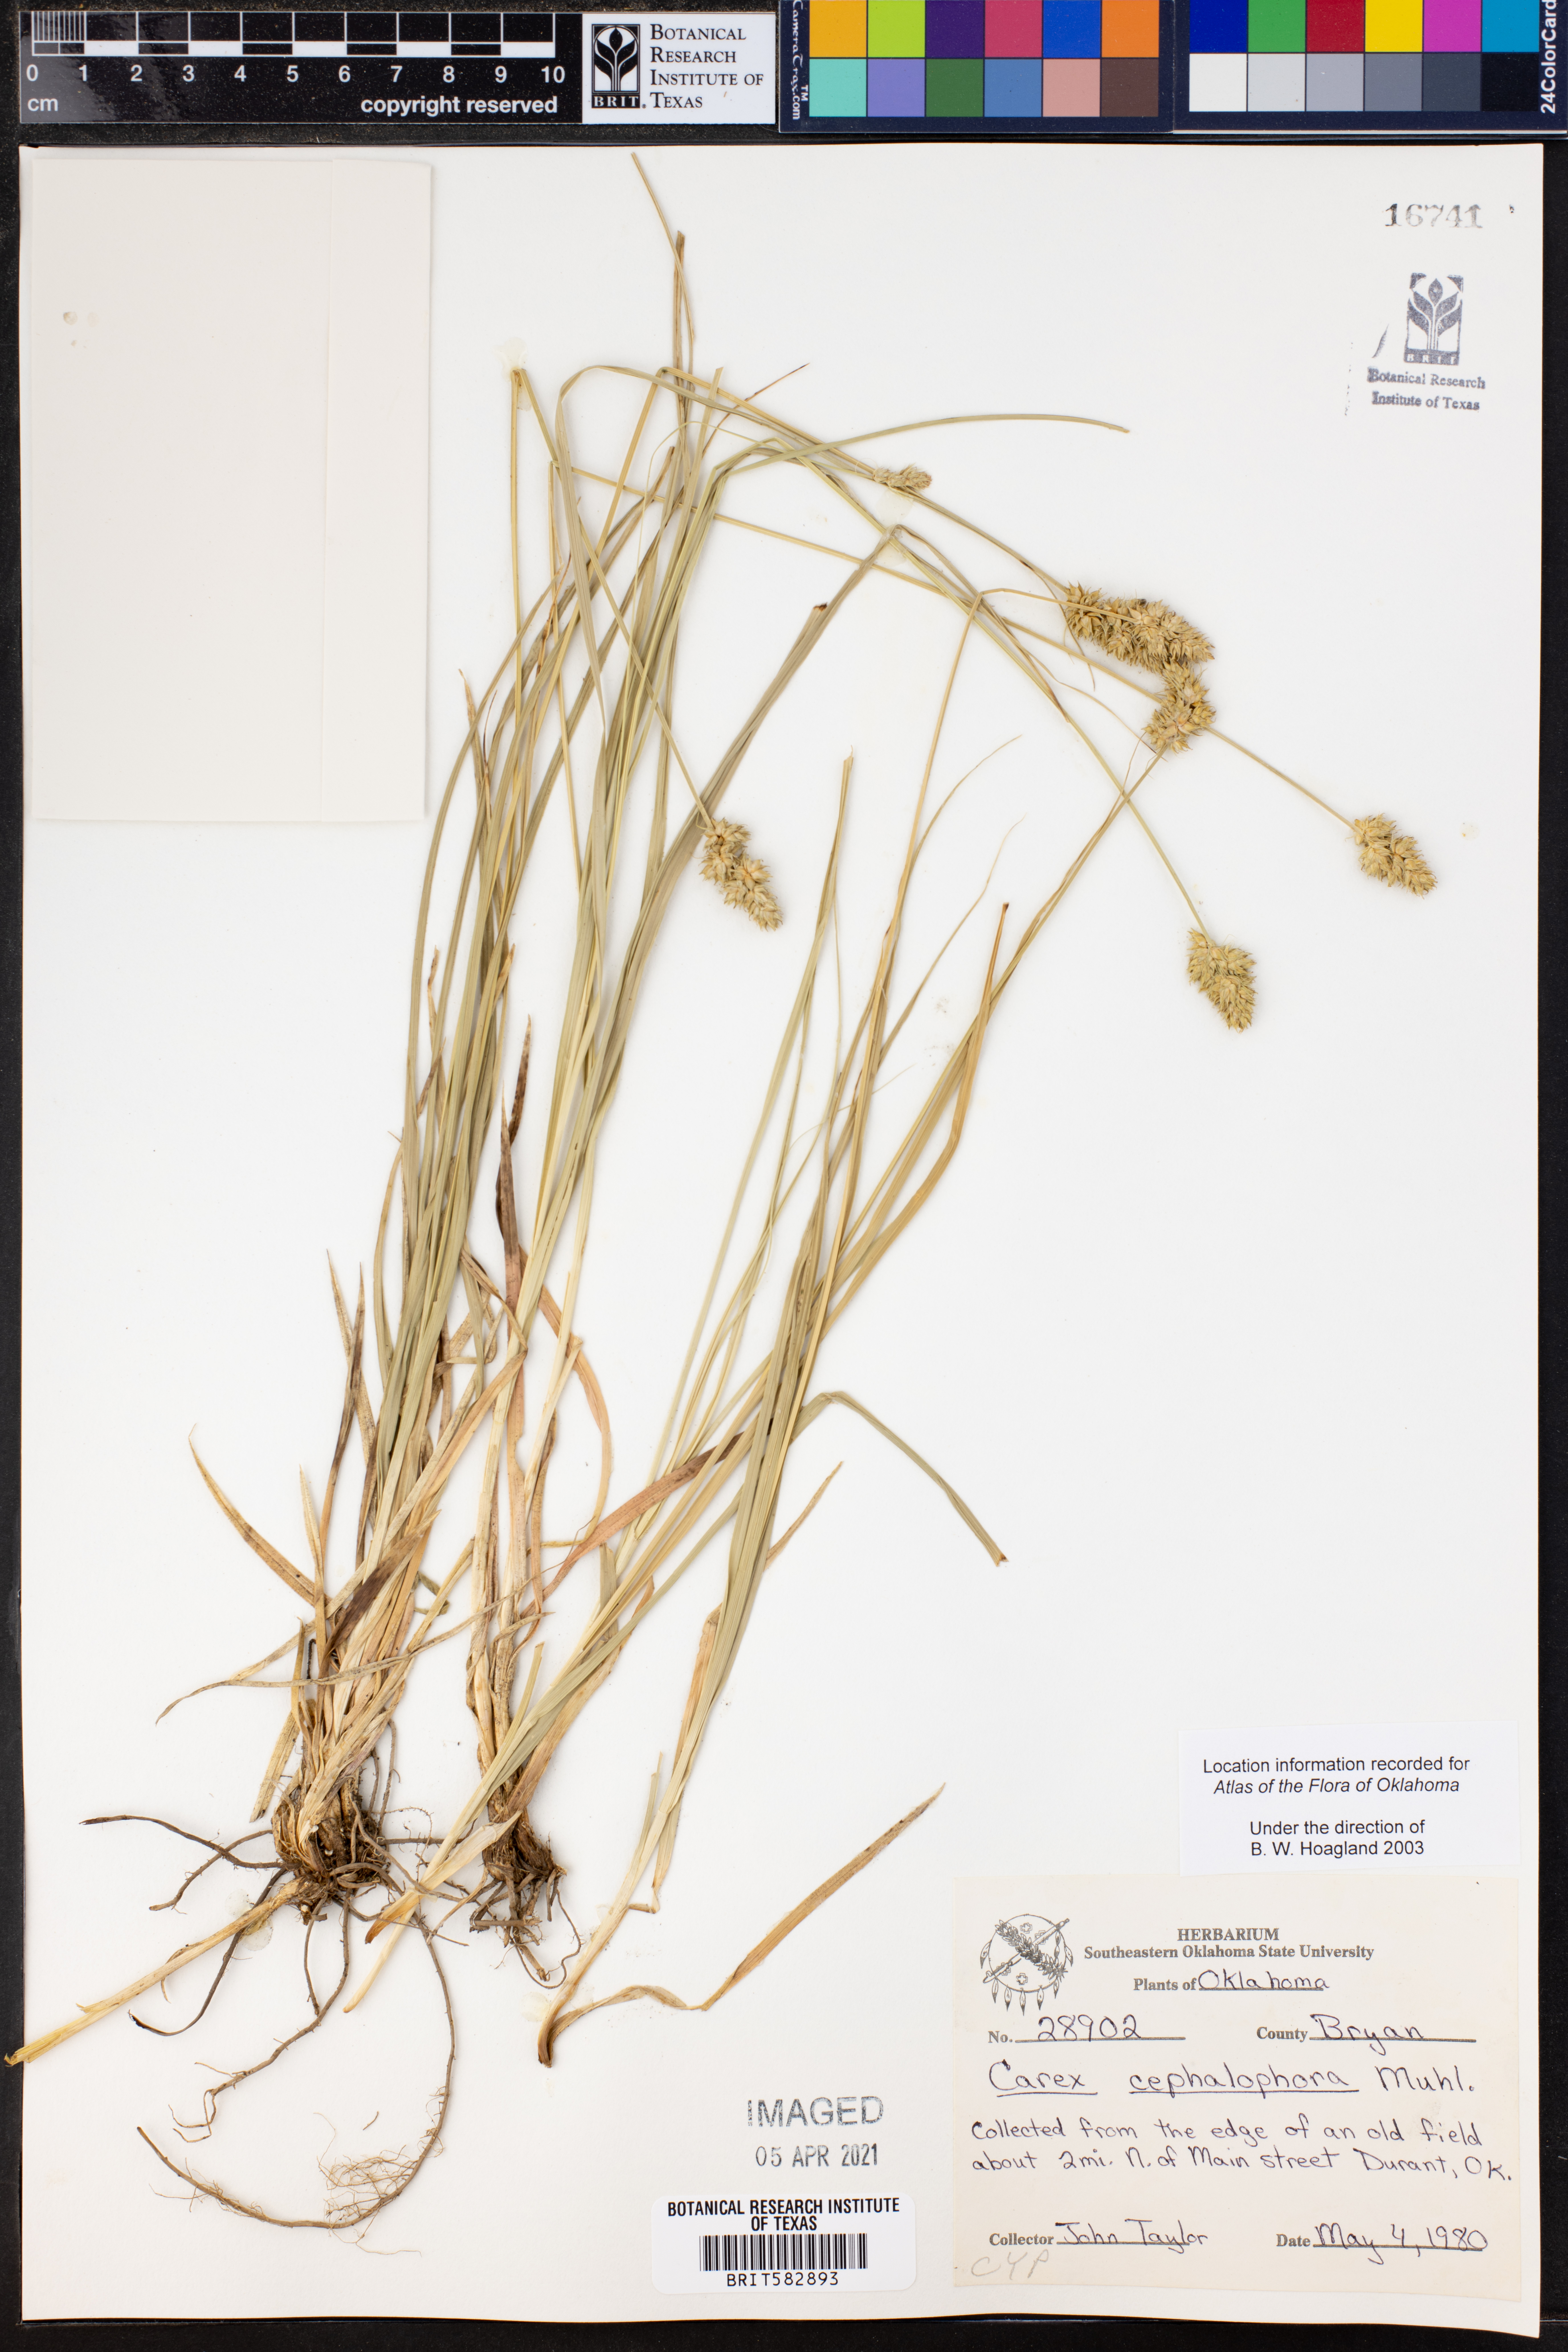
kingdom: Plantae
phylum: Tracheophyta
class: Liliopsida
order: Poales
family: Cyperaceae
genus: Carex
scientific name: Carex cephalophora
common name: Oval-headed sedge
